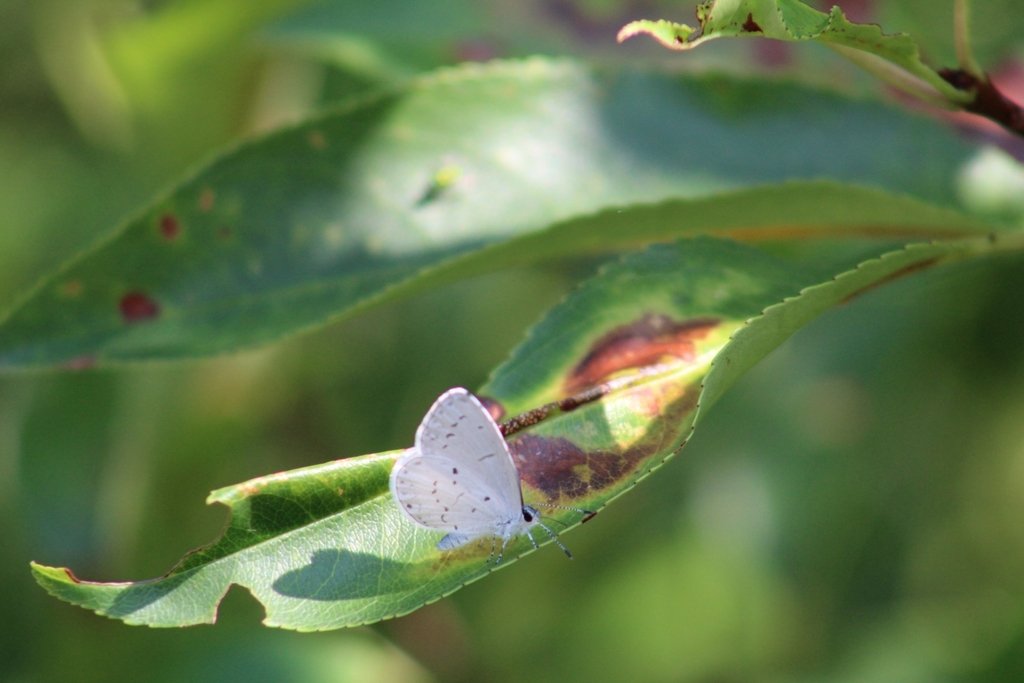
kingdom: Animalia
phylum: Arthropoda
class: Insecta
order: Lepidoptera
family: Lycaenidae
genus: Cyaniris
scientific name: Cyaniris neglecta
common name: Summer Azure
